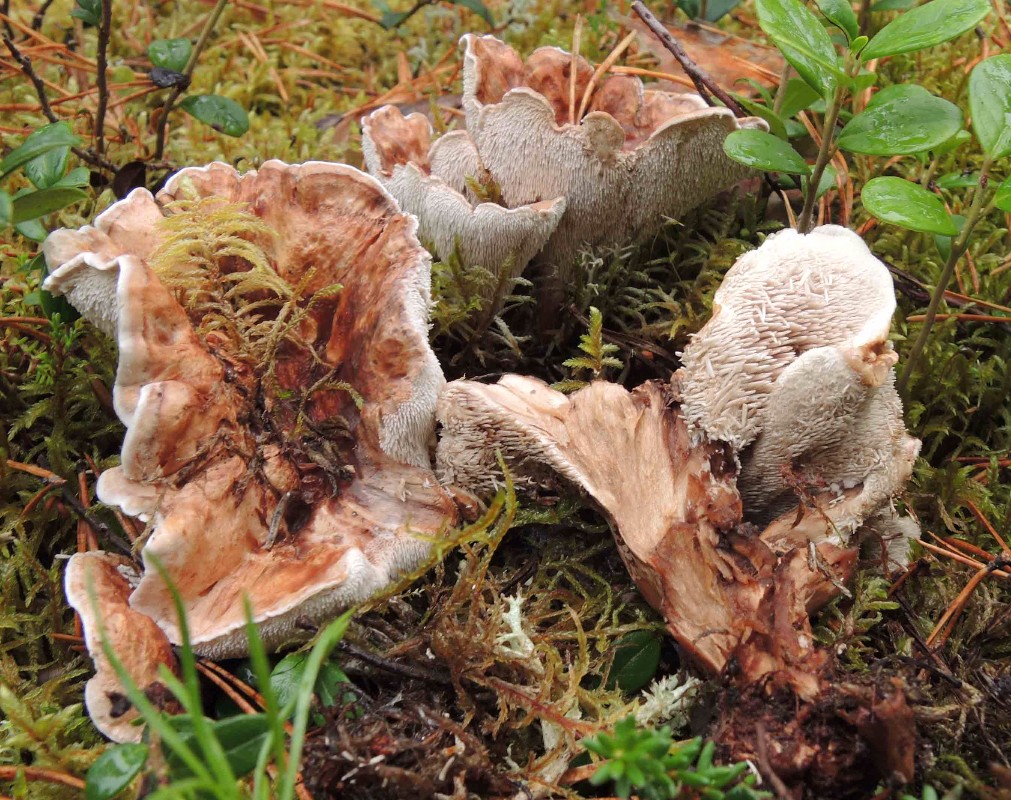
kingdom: Fungi
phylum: Basidiomycota
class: Agaricomycetes
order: Thelephorales
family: Thelephoraceae
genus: Phellodon
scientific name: Phellodon fuligineoalbus
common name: pjusket duftpigsvamp
